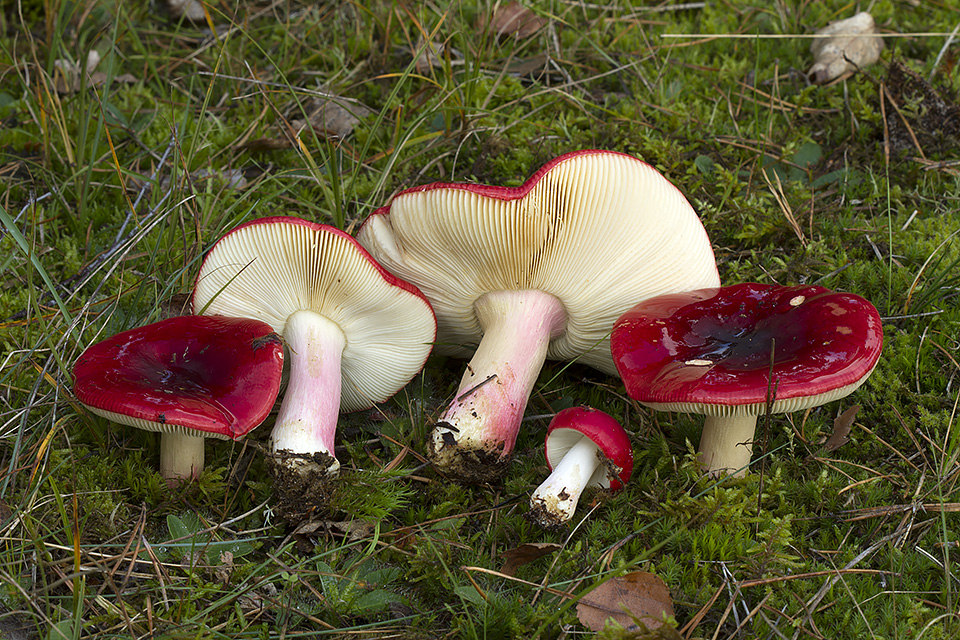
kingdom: Fungi
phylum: Basidiomycota
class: Agaricomycetes
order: Russulales
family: Russulaceae
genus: Russula
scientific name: Russula xerampelina
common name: hummer-skørhat
